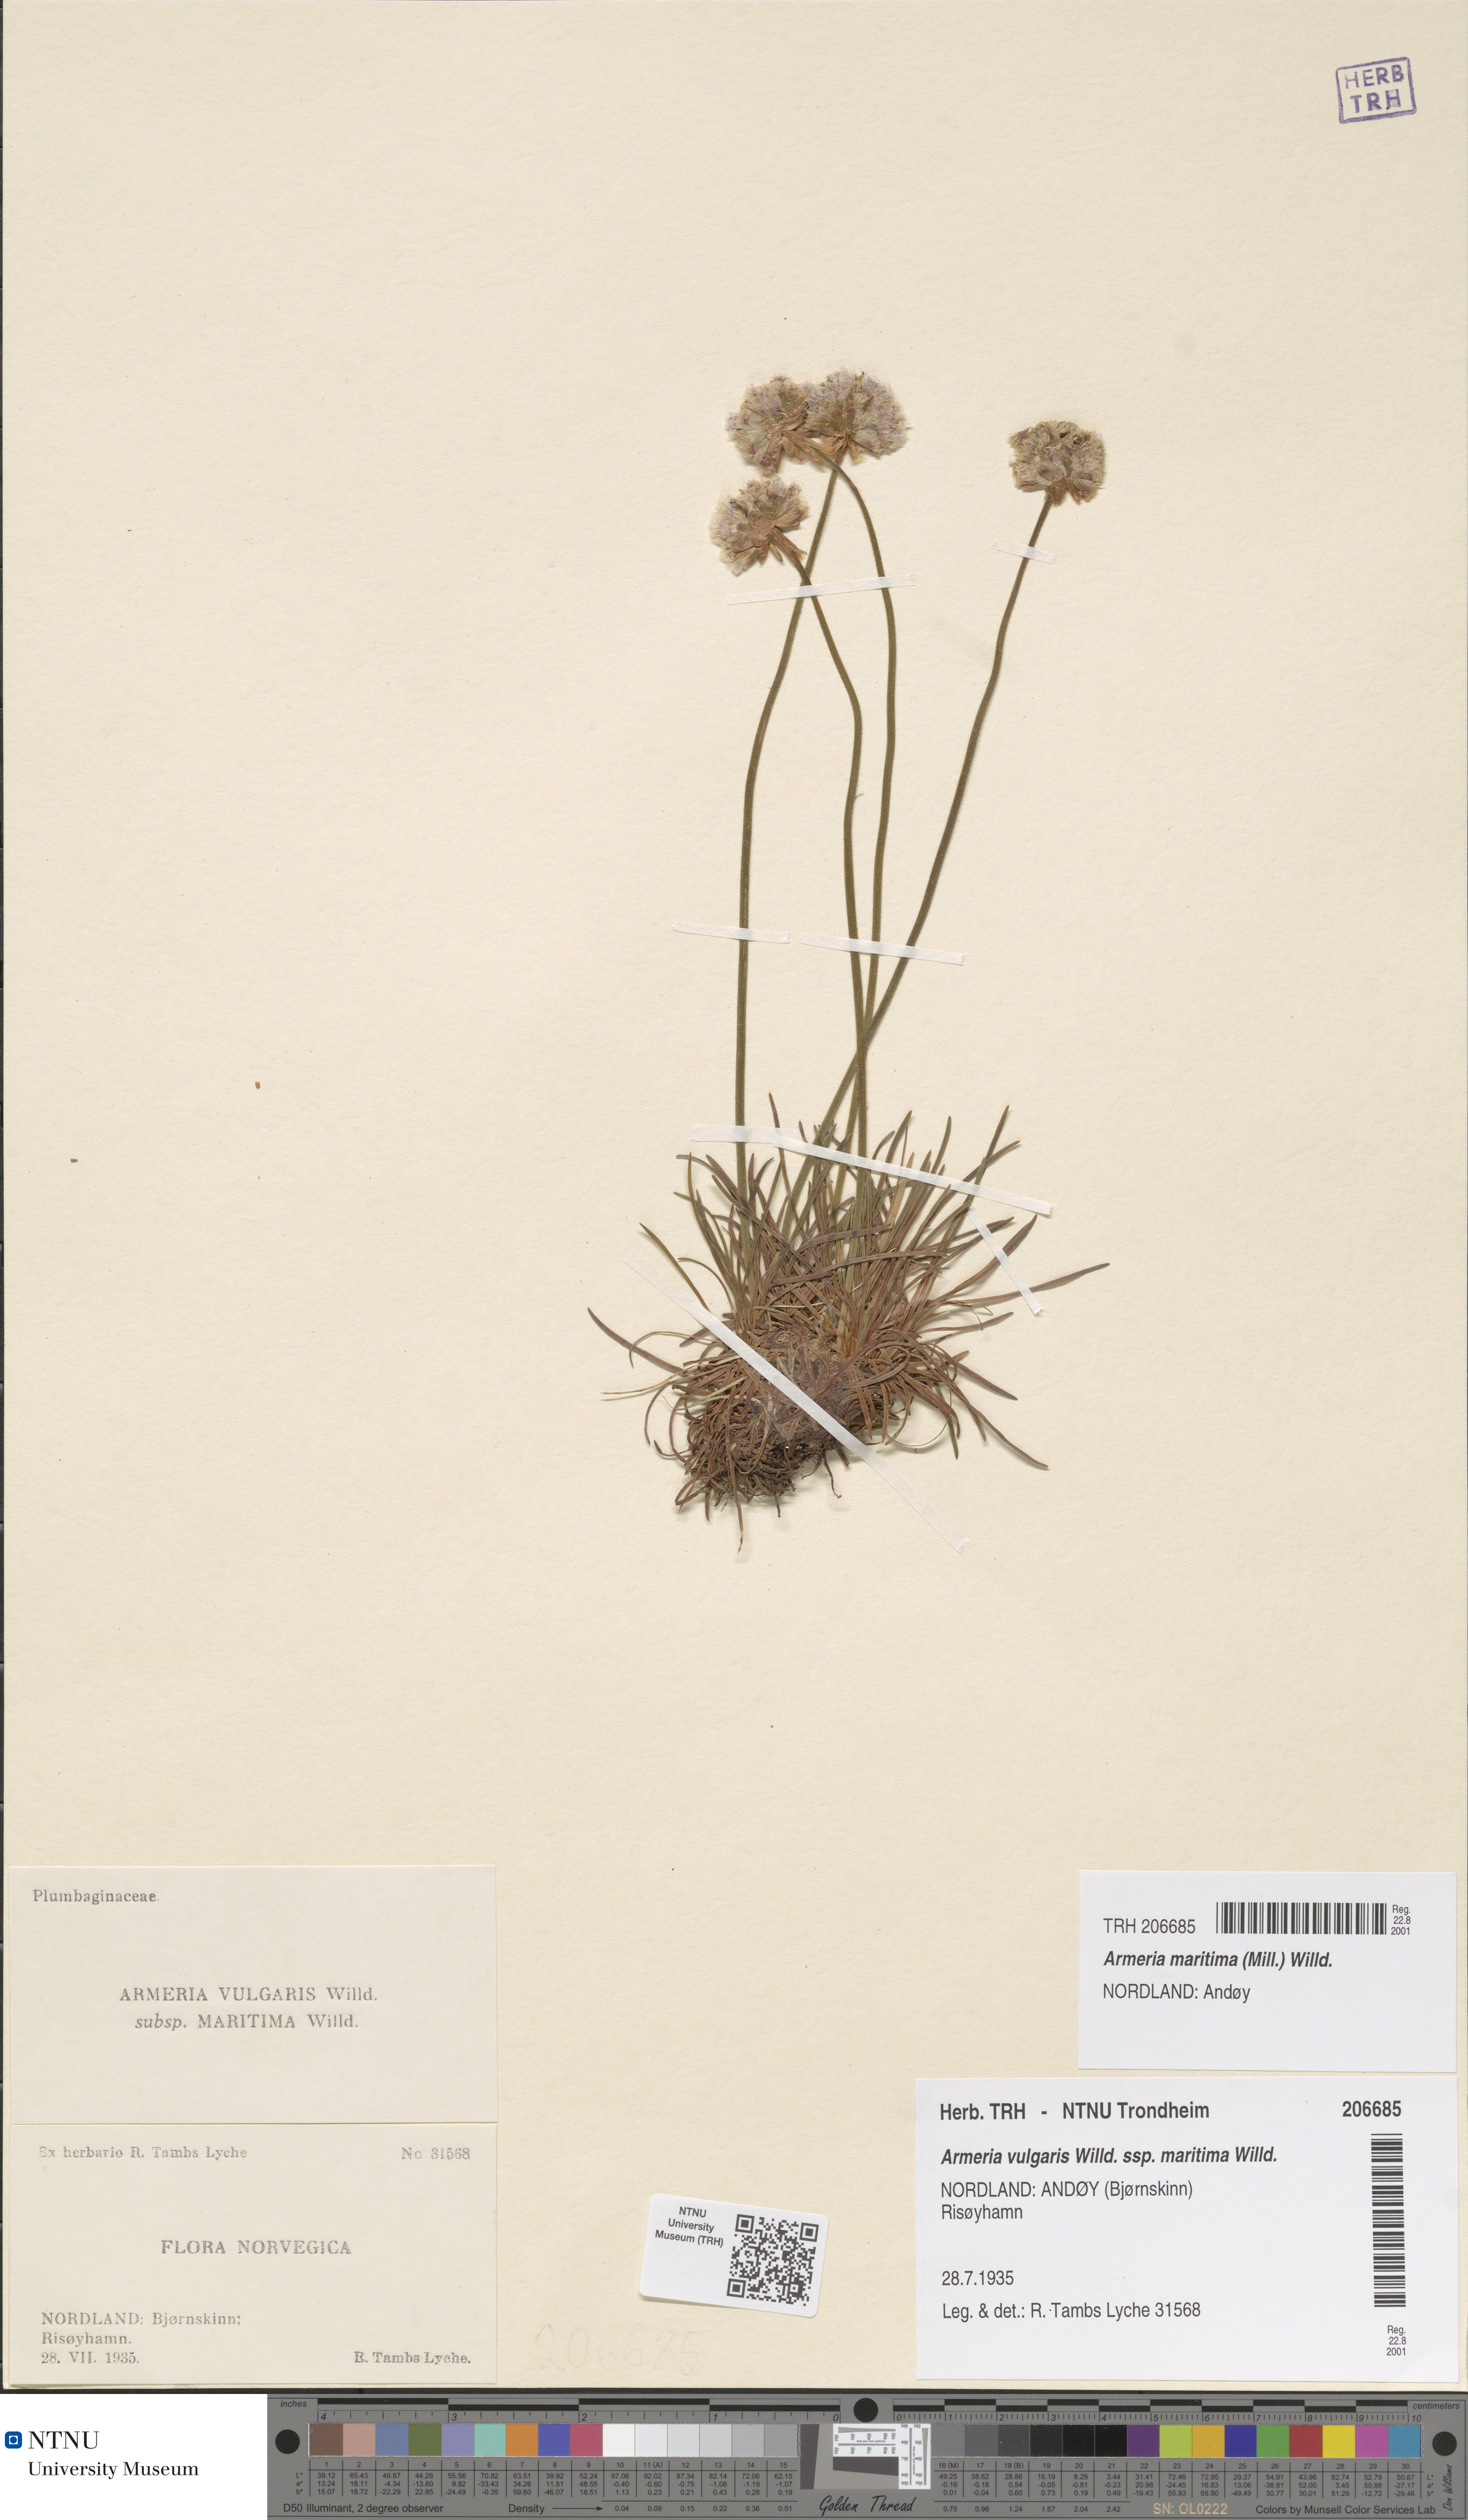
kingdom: Plantae
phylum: Tracheophyta
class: Magnoliopsida
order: Caryophyllales
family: Plumbaginaceae
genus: Armeria
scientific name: Armeria maritima
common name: Thrift
